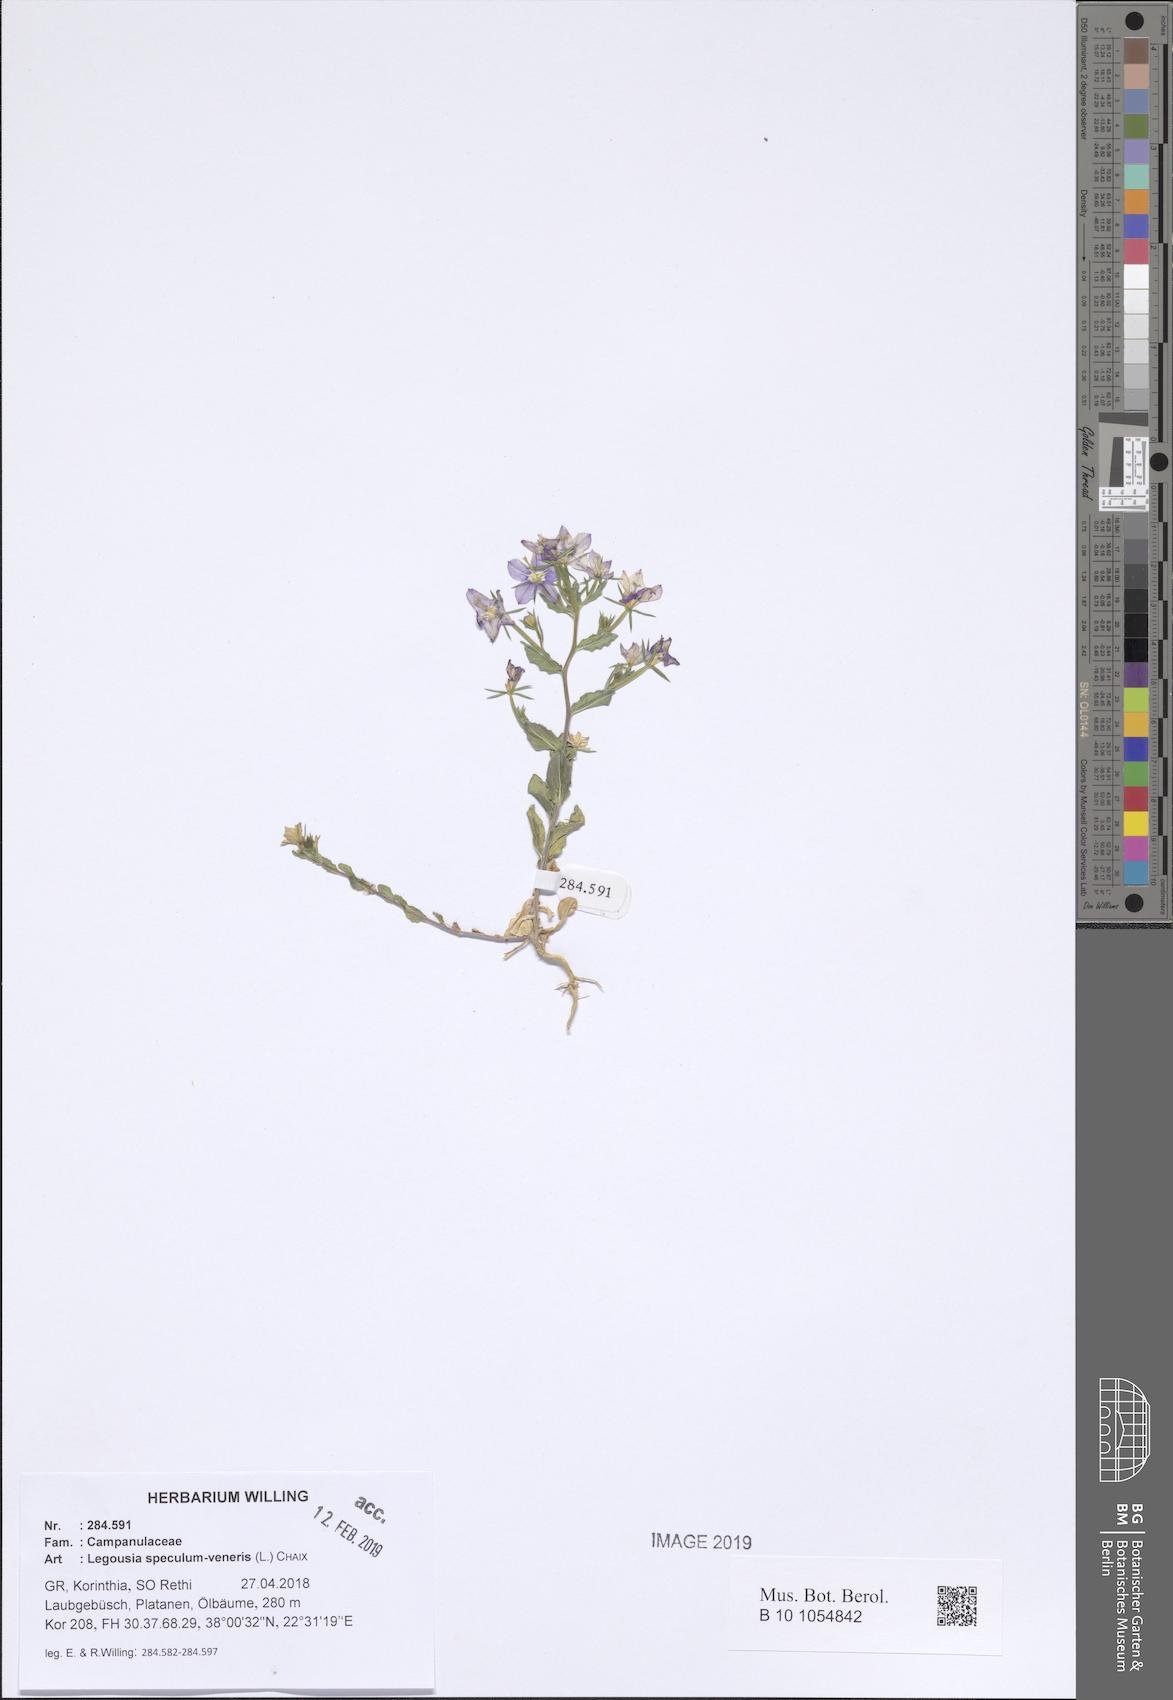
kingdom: Plantae
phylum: Tracheophyta
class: Magnoliopsida
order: Asterales
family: Campanulaceae
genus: Legousia
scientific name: Legousia speculum-veneris
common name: Large venus's-looking-glass
